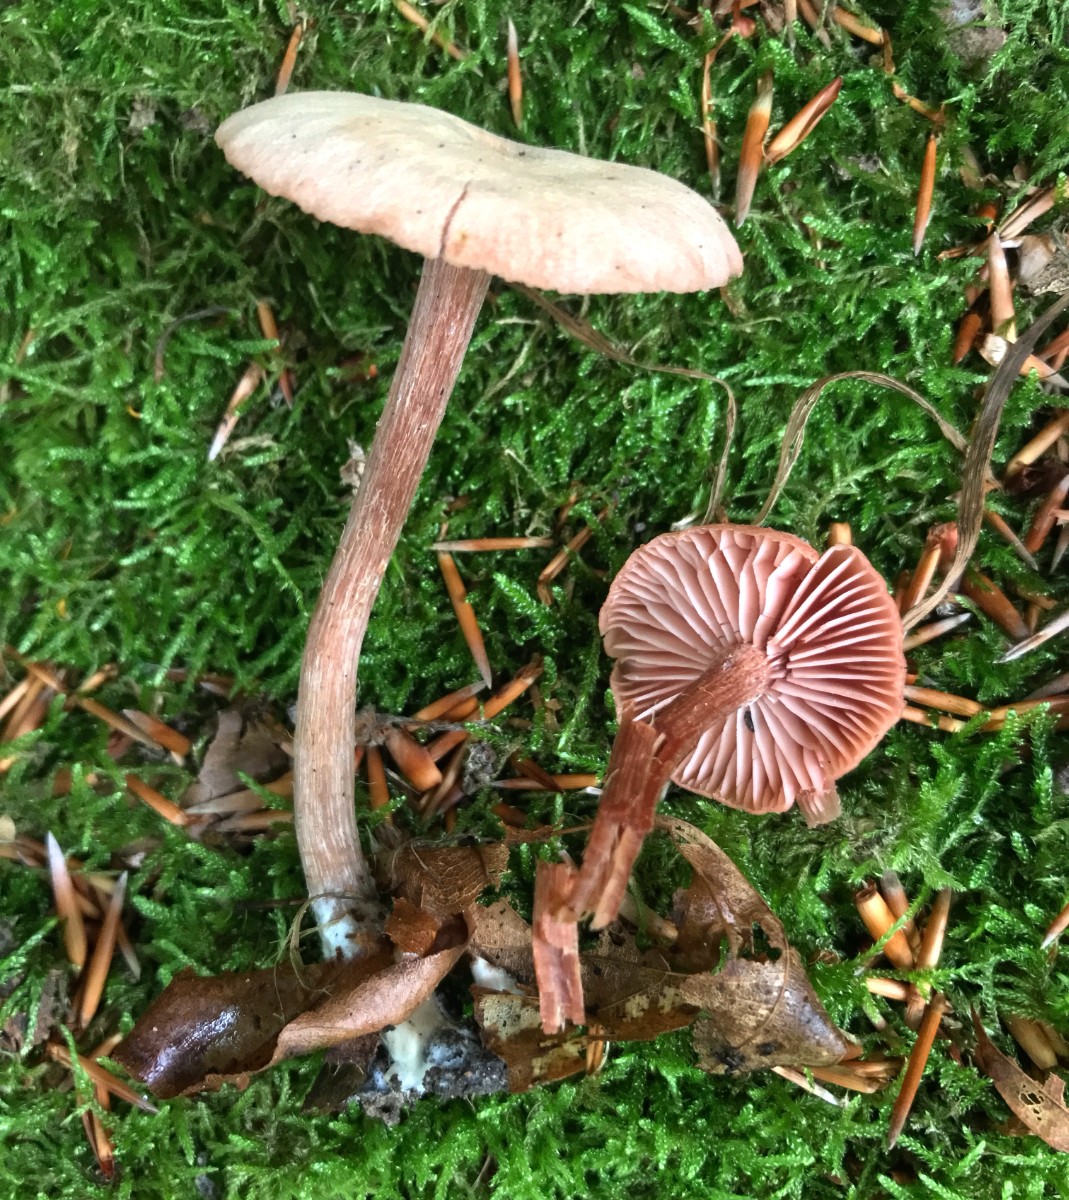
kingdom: Fungi
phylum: Basidiomycota
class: Agaricomycetes
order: Agaricales
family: Hydnangiaceae
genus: Laccaria
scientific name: Laccaria laccata
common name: rød ametysthat
